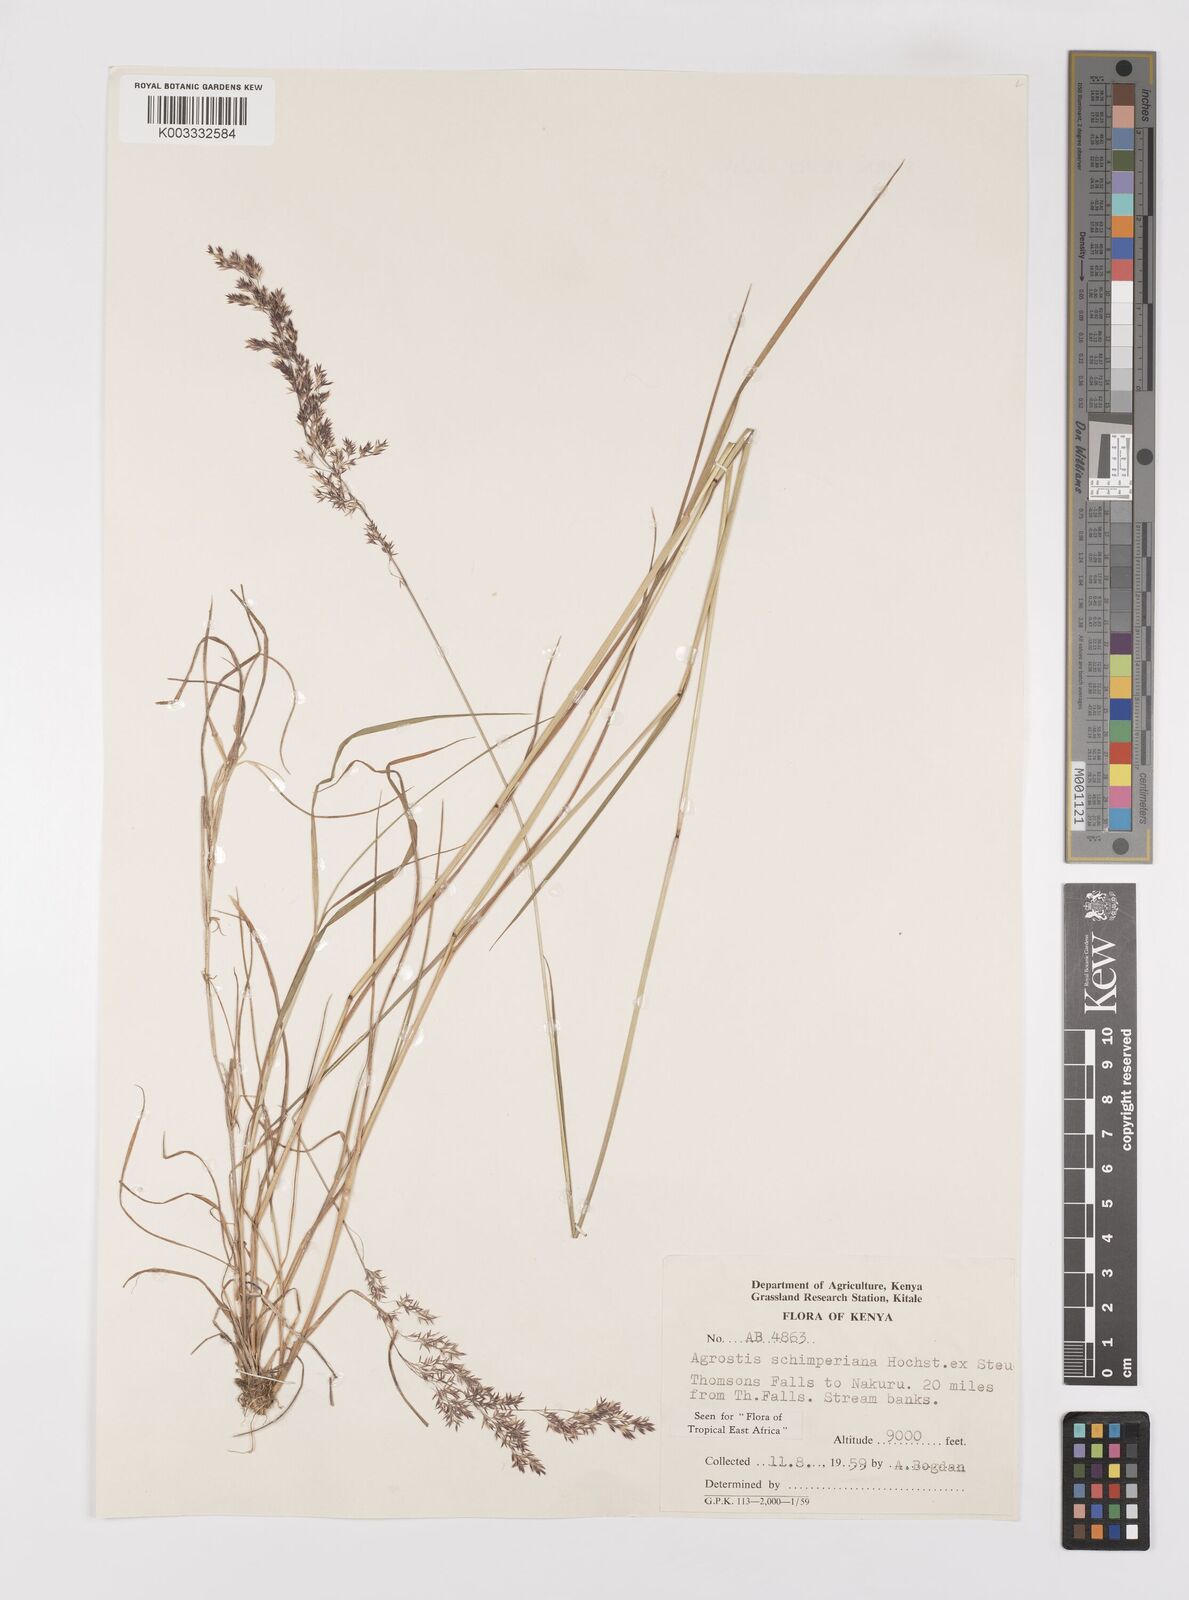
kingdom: Plantae
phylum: Tracheophyta
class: Liliopsida
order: Poales
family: Poaceae
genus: Polypogon
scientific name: Polypogon schimperianus
